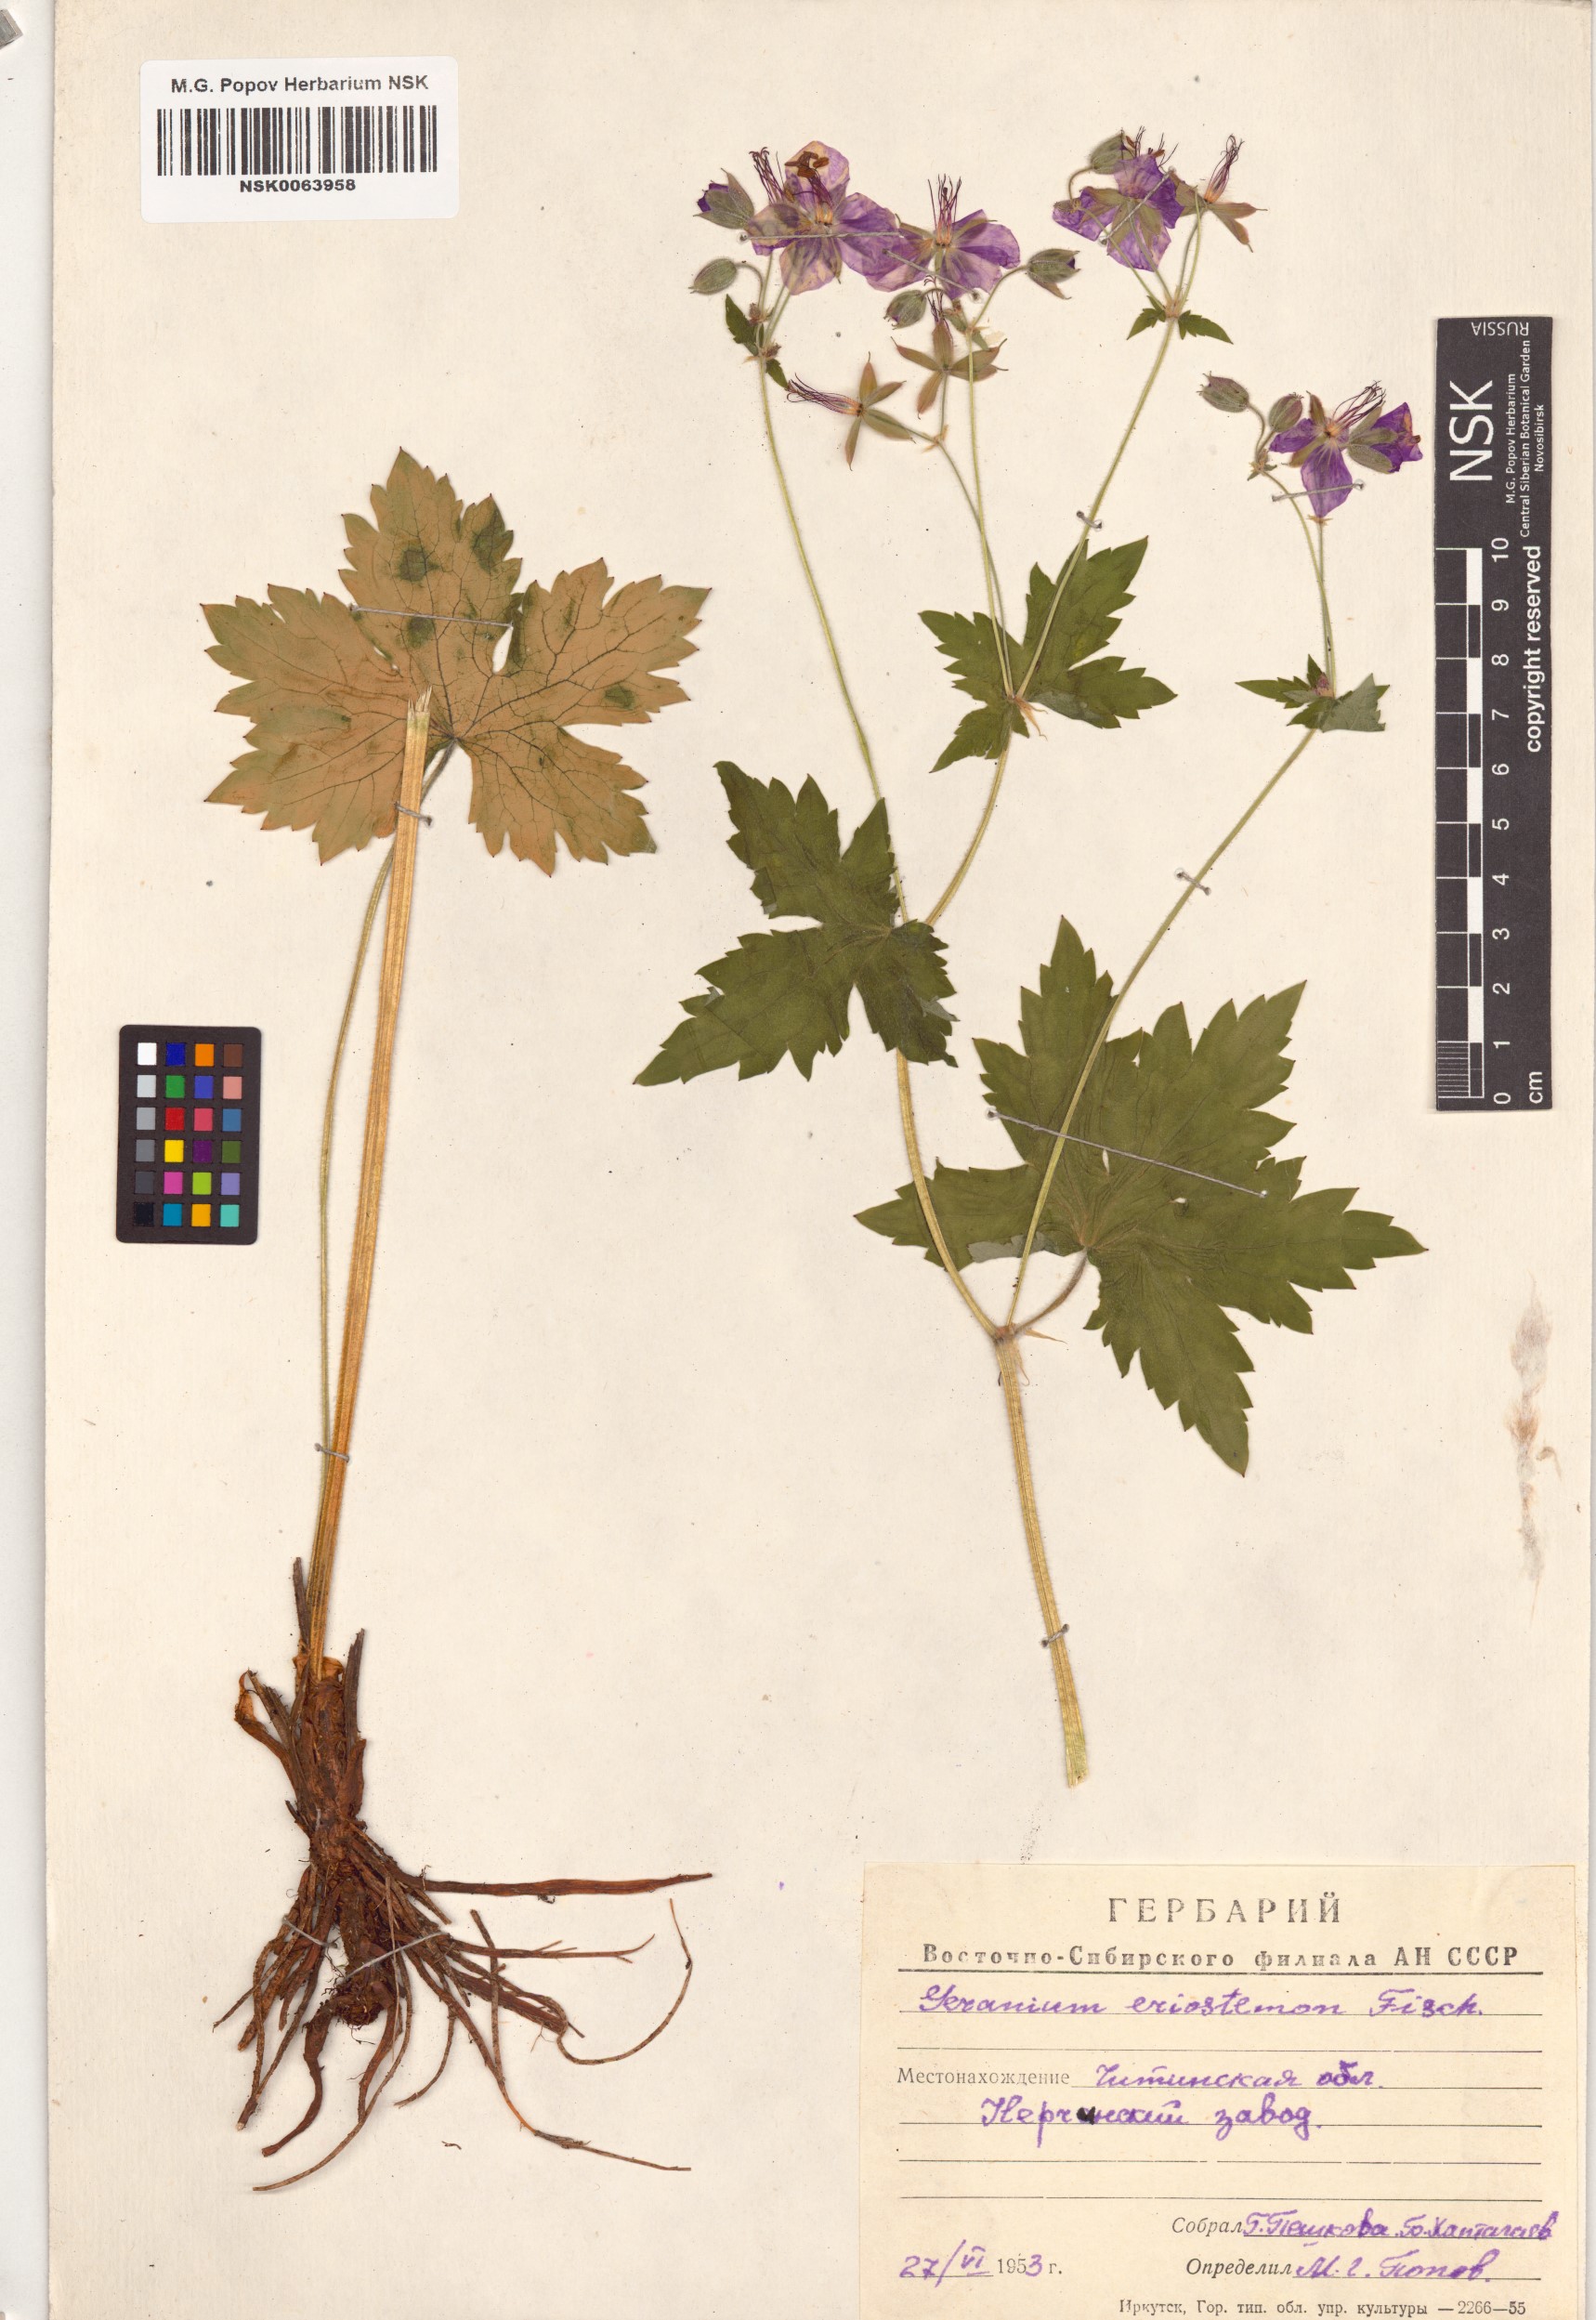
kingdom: Plantae
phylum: Tracheophyta
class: Magnoliopsida
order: Geraniales
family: Geraniaceae
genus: Geranium
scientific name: Geranium platyanthum
